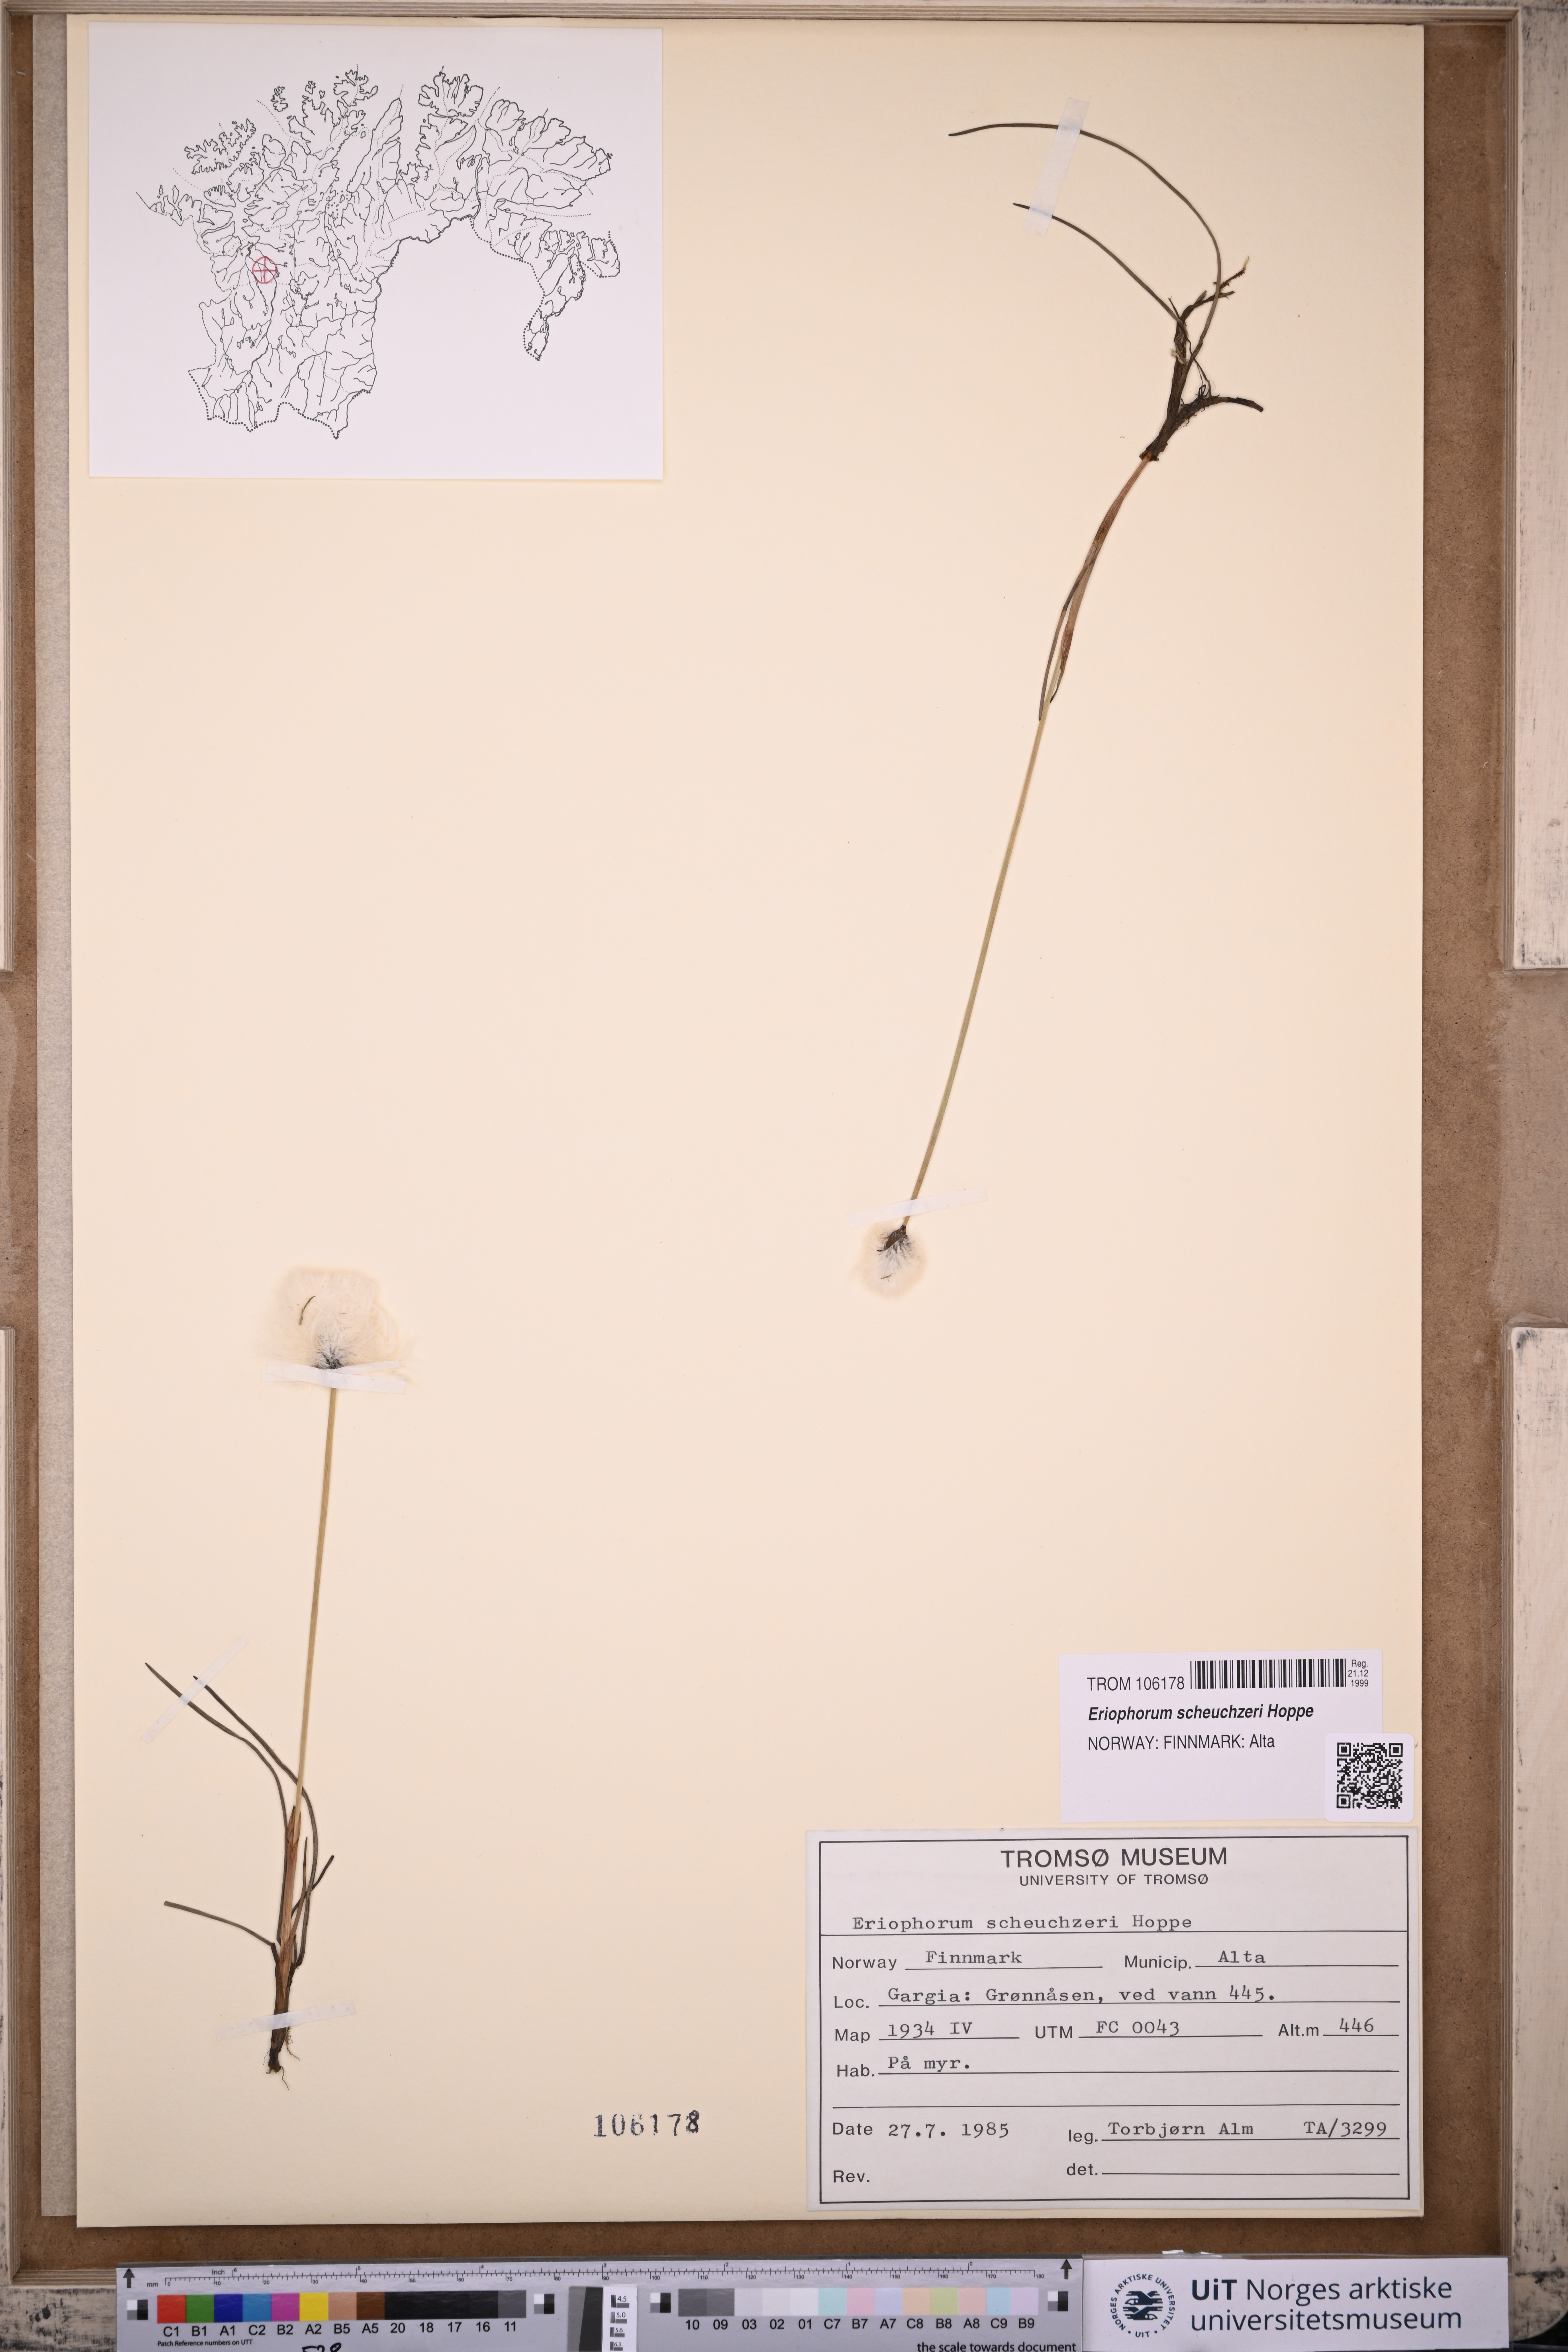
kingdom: Plantae
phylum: Tracheophyta
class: Liliopsida
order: Poales
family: Cyperaceae
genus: Eriophorum
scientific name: Eriophorum scheuchzeri
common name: Scheuchzer's cottongrass
